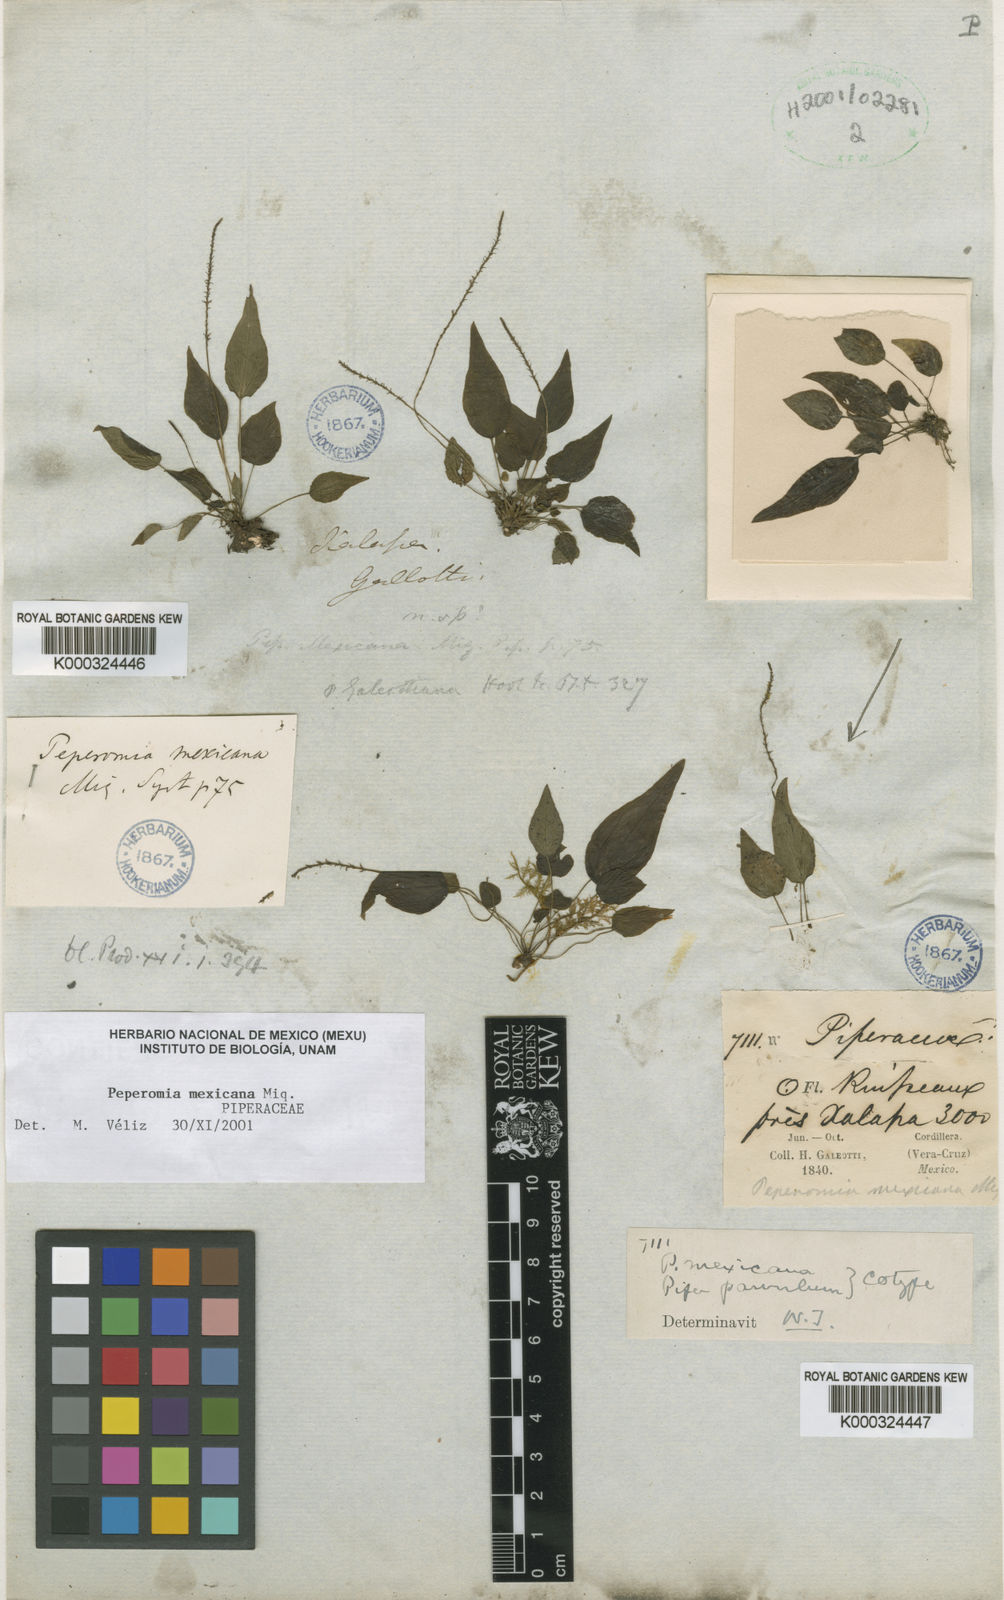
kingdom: Plantae
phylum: Tracheophyta
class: Magnoliopsida
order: Piperales
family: Piperaceae
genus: Peperomia
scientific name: Peperomia mexicana
